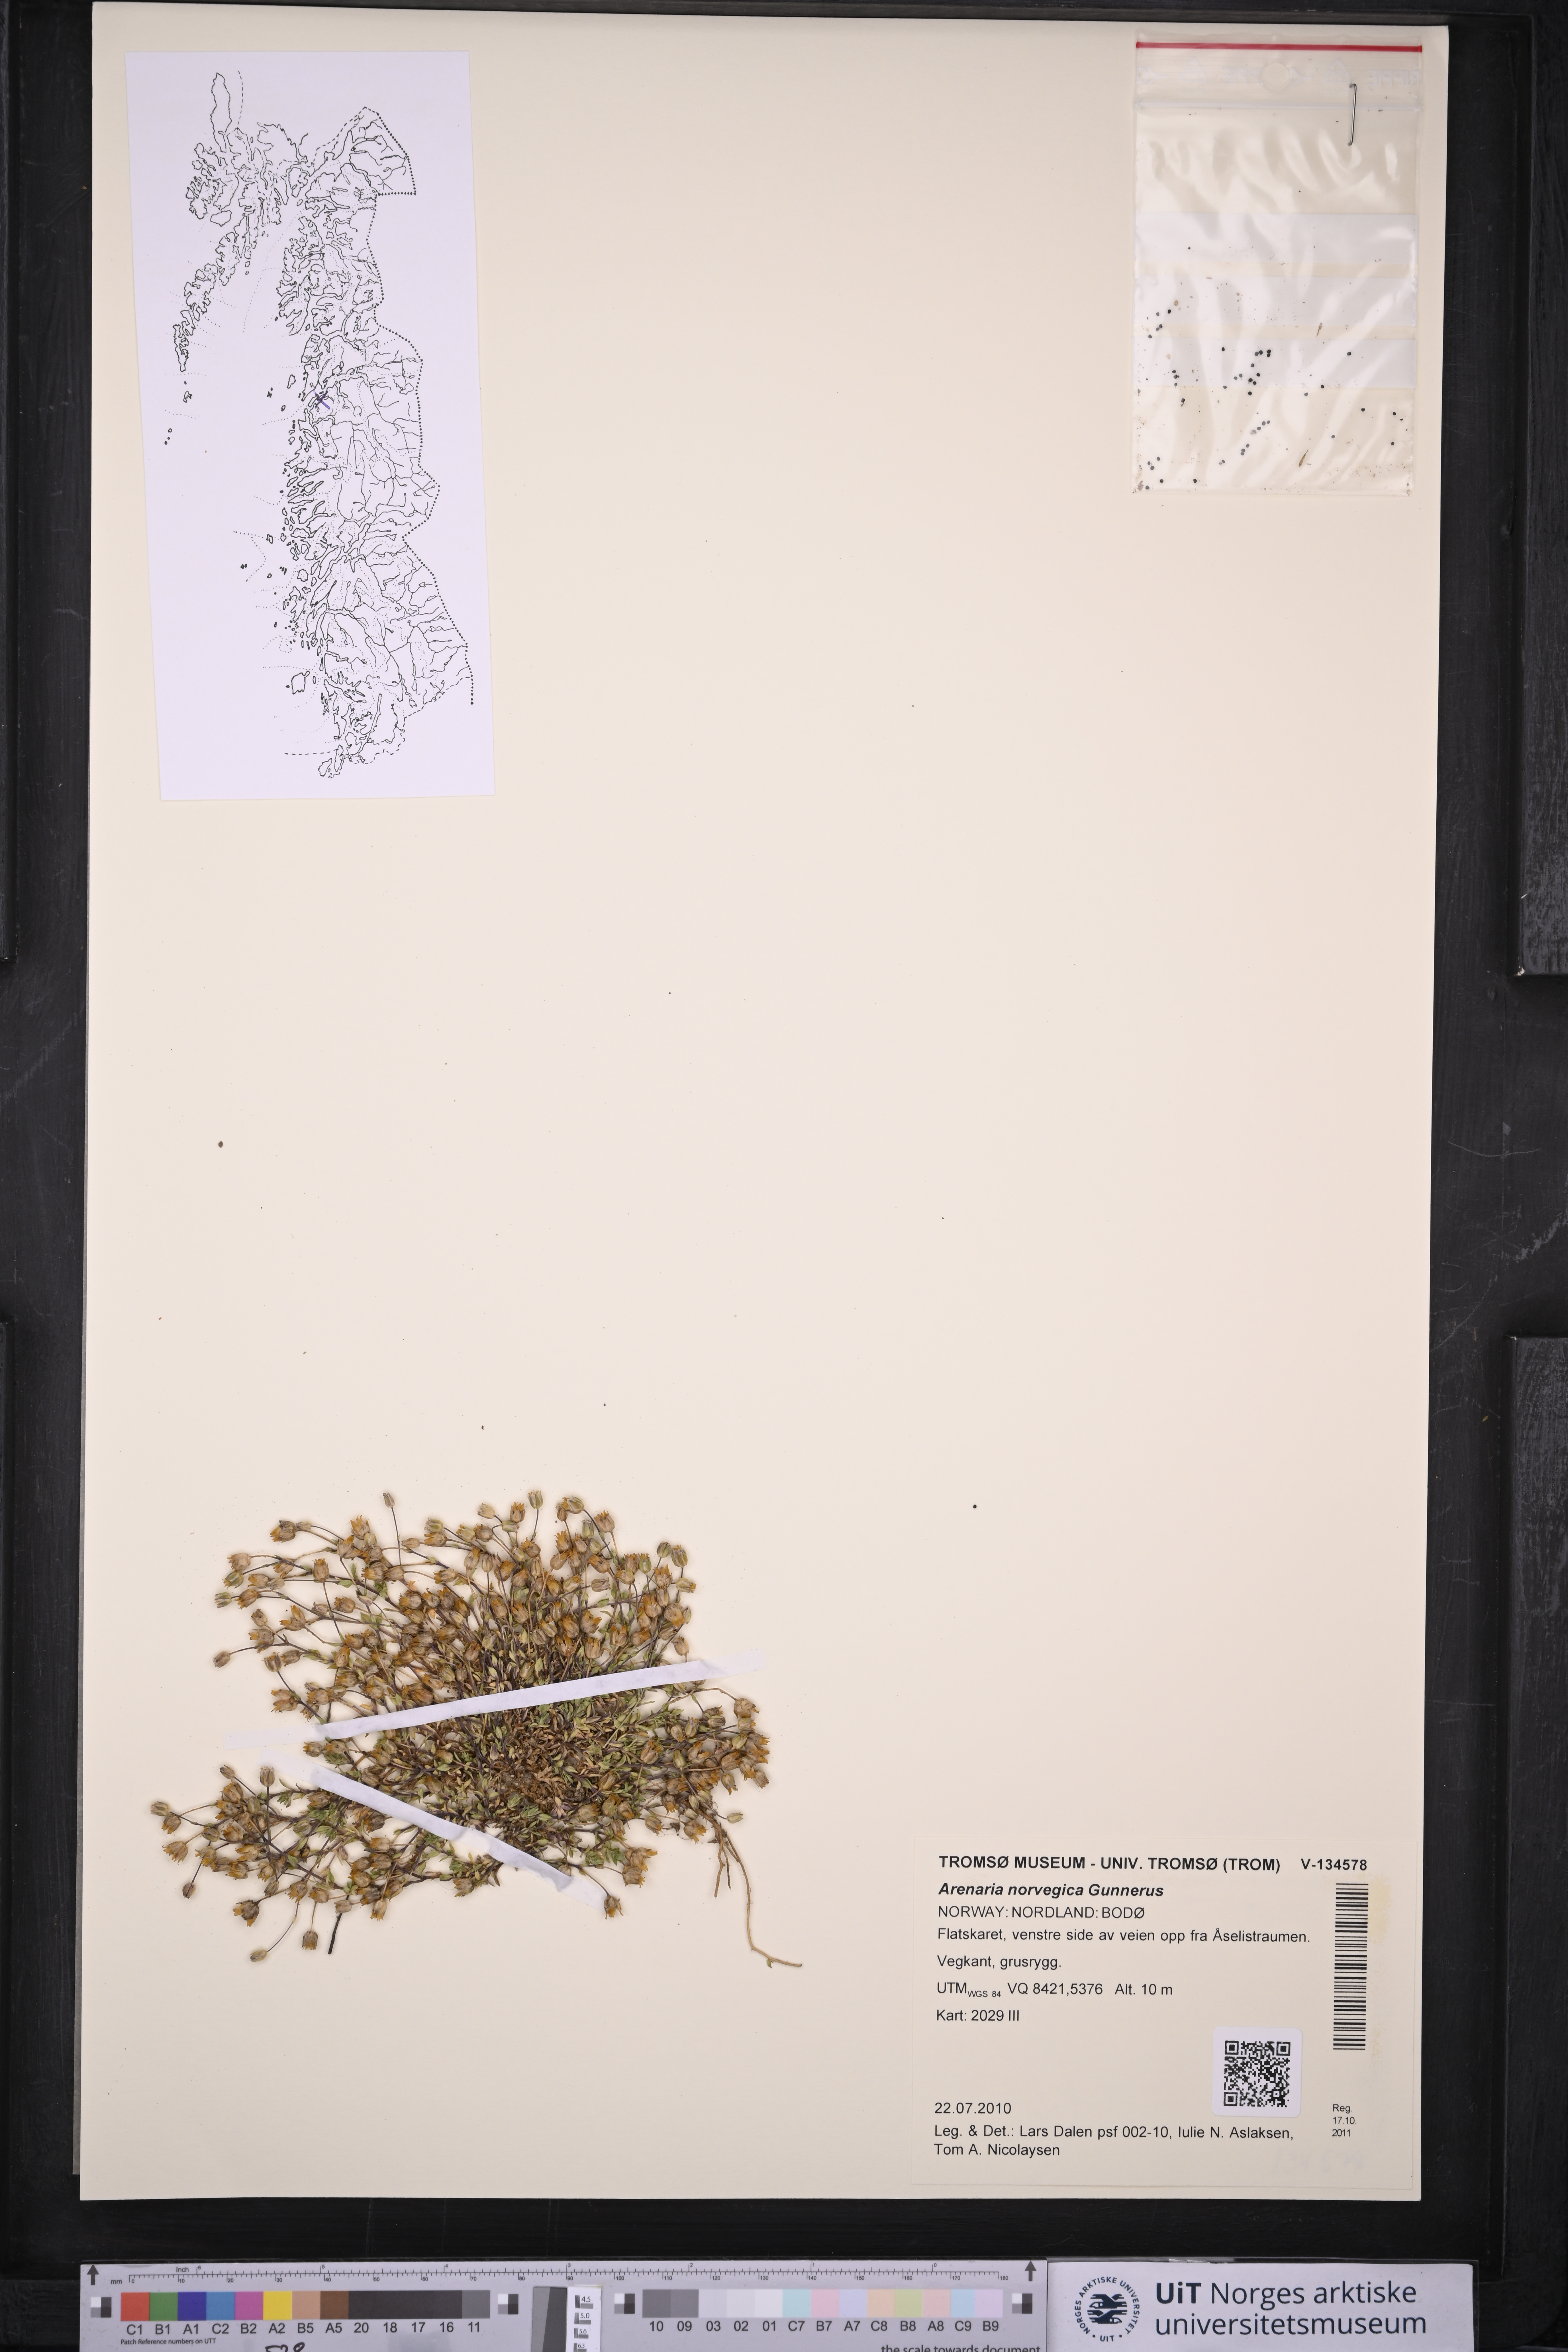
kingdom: Plantae
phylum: Tracheophyta
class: Magnoliopsida
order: Caryophyllales
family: Caryophyllaceae
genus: Arenaria
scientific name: Arenaria norvegica
